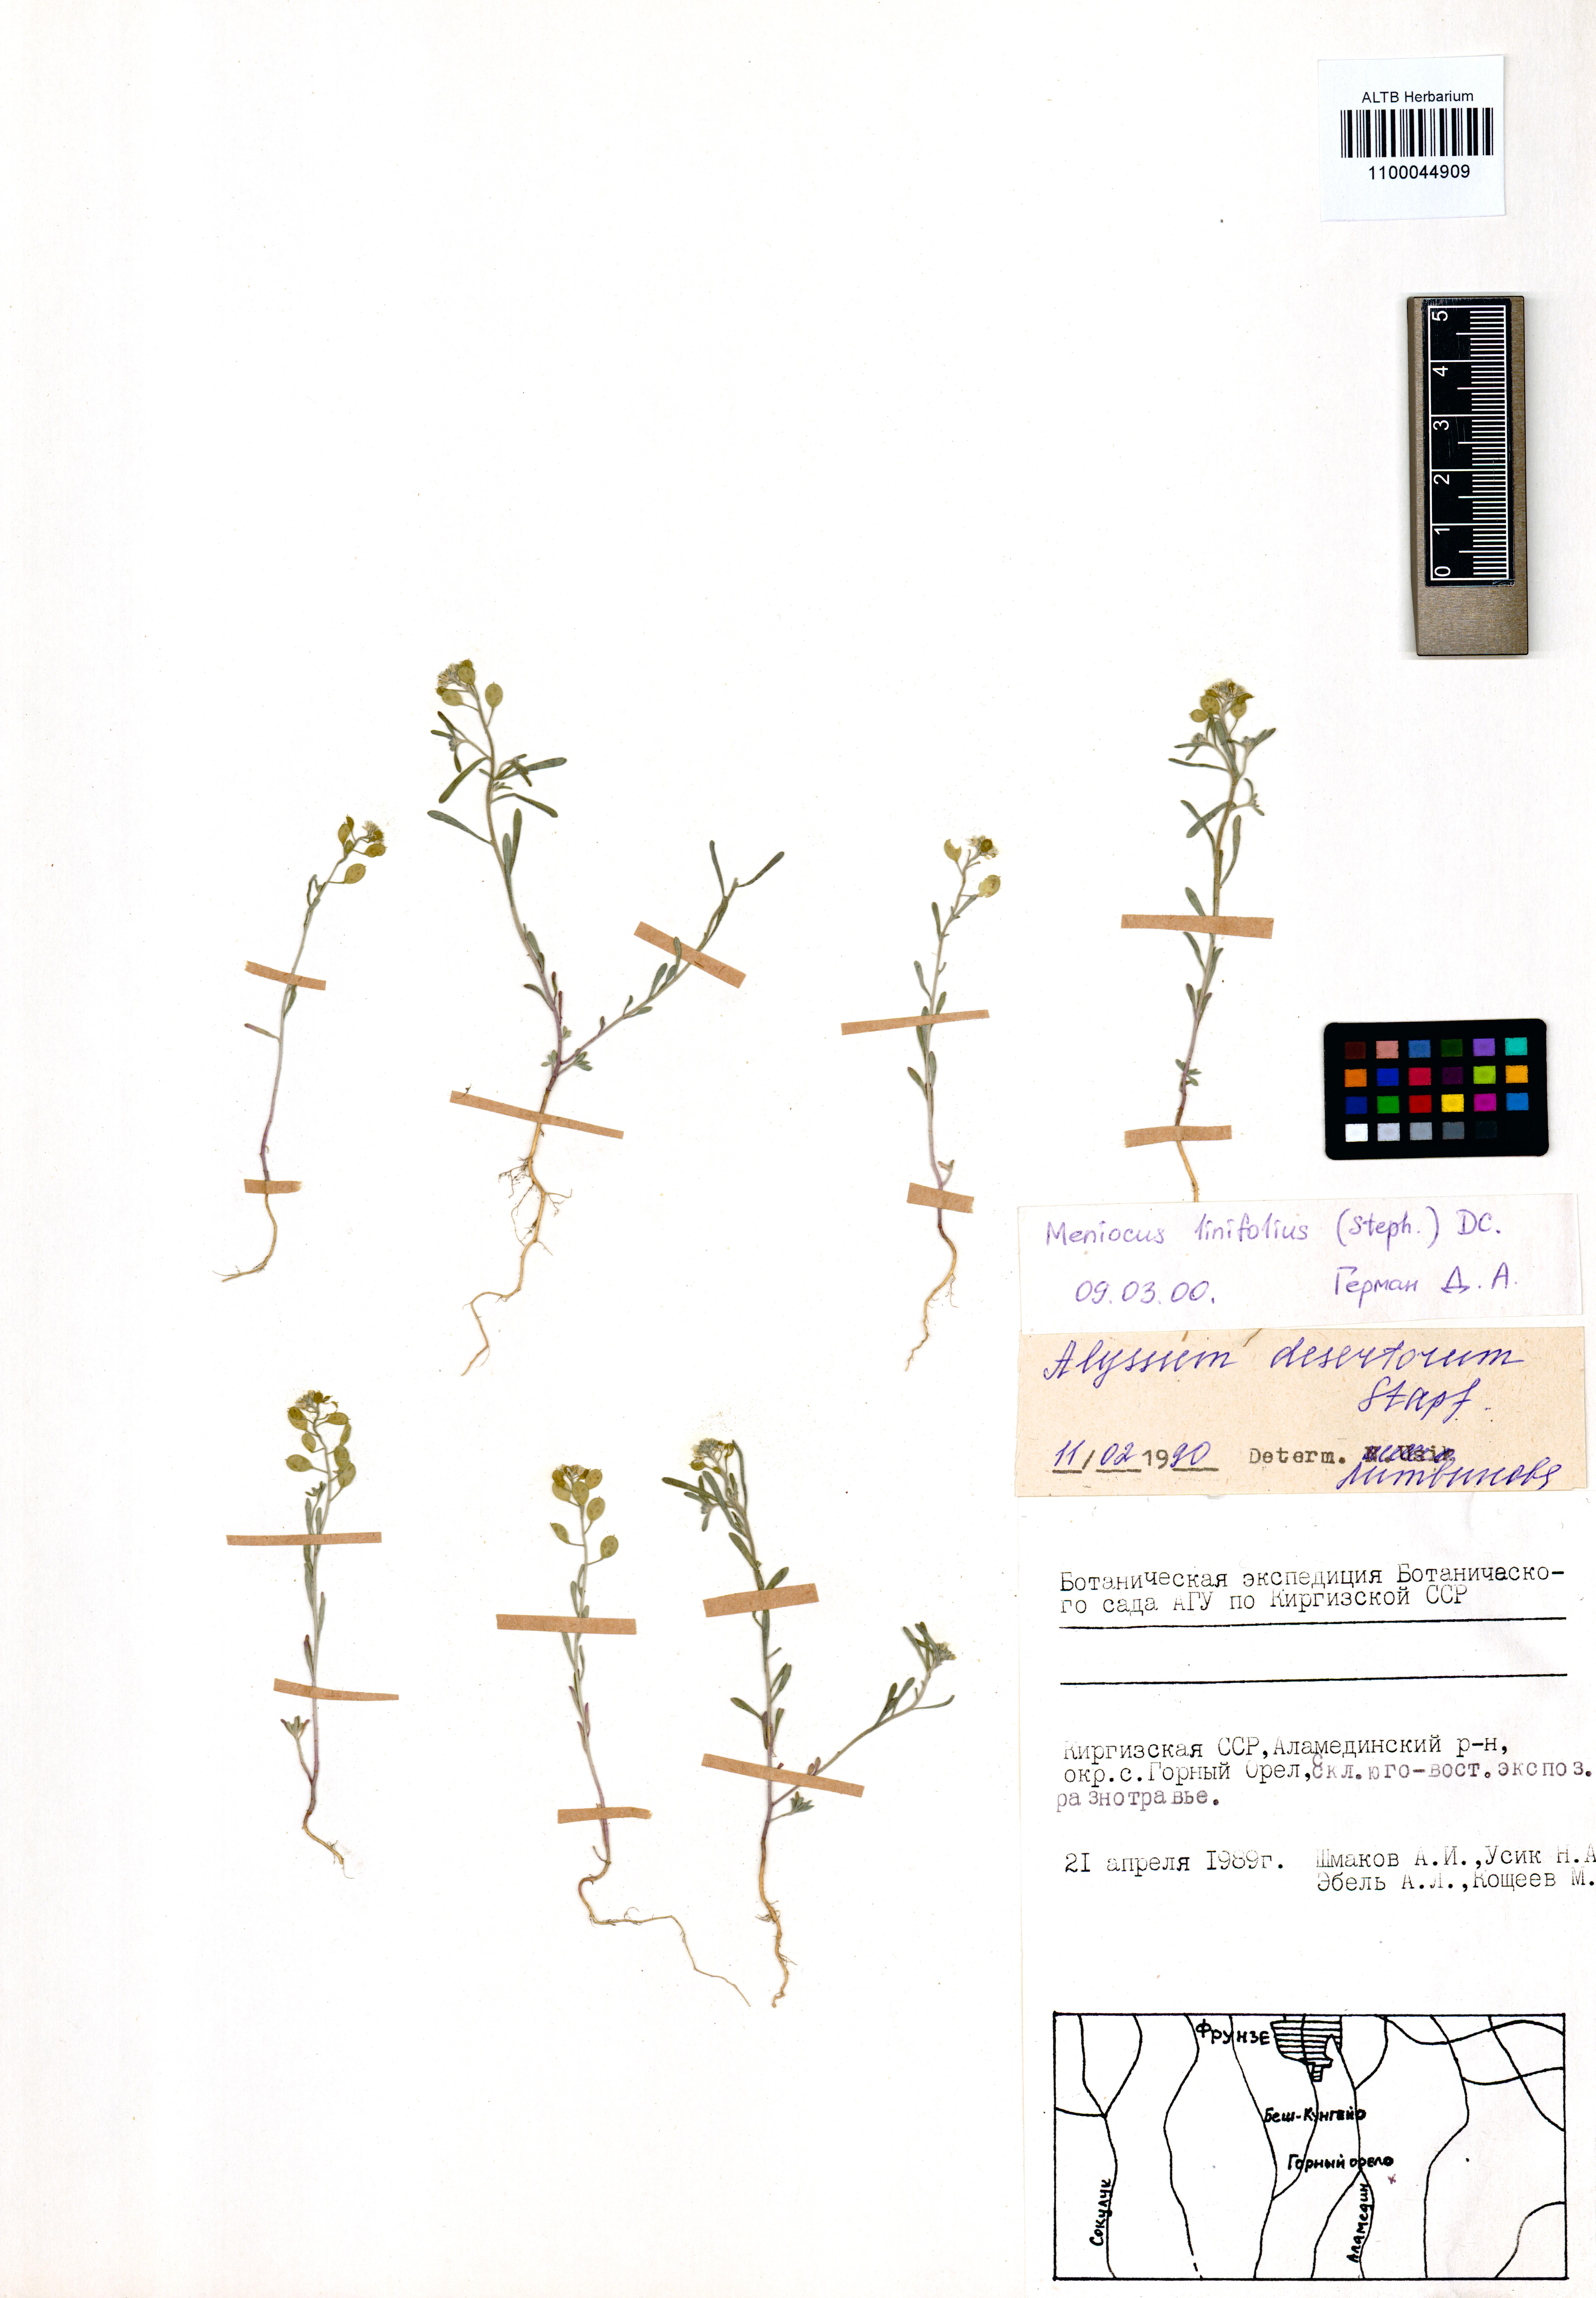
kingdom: Plantae
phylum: Tracheophyta
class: Magnoliopsida
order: Brassicales
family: Brassicaceae
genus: Meniocus
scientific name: Meniocus linifolius
